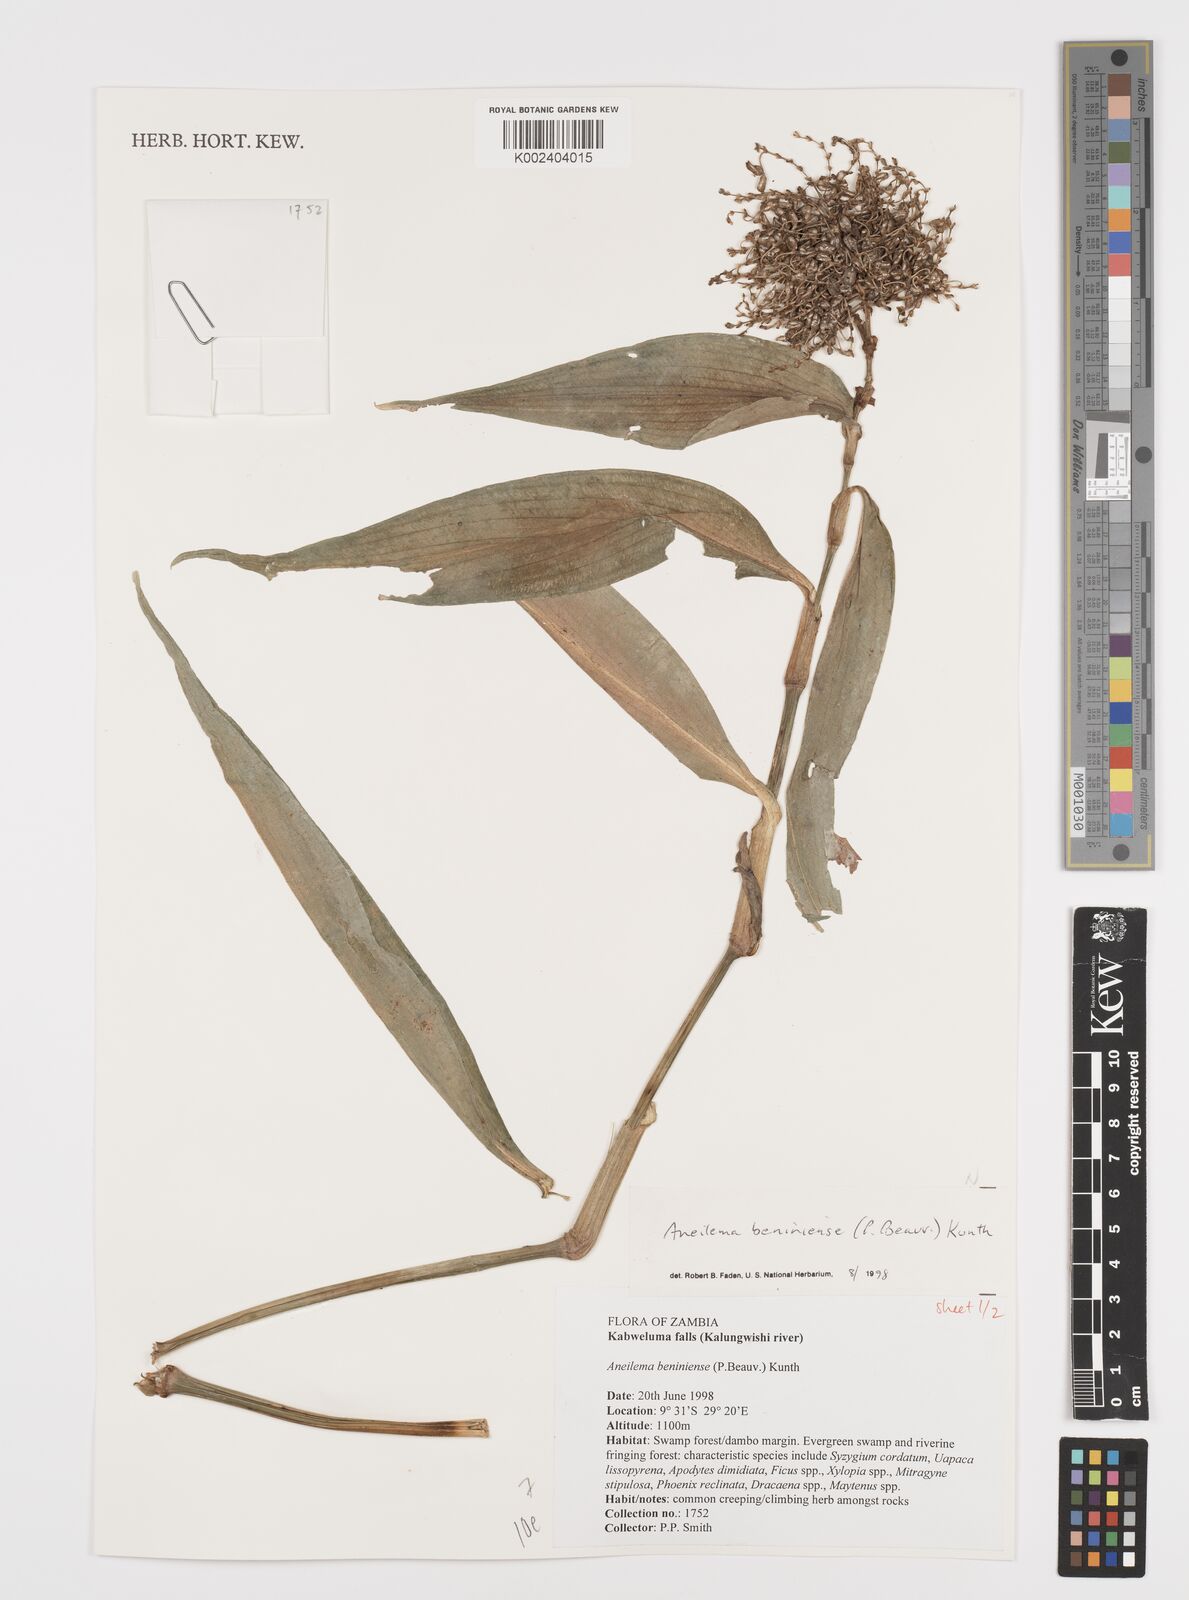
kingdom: Plantae
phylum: Tracheophyta
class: Liliopsida
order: Commelinales
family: Commelinaceae
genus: Aneilema
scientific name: Aneilema beniniense
